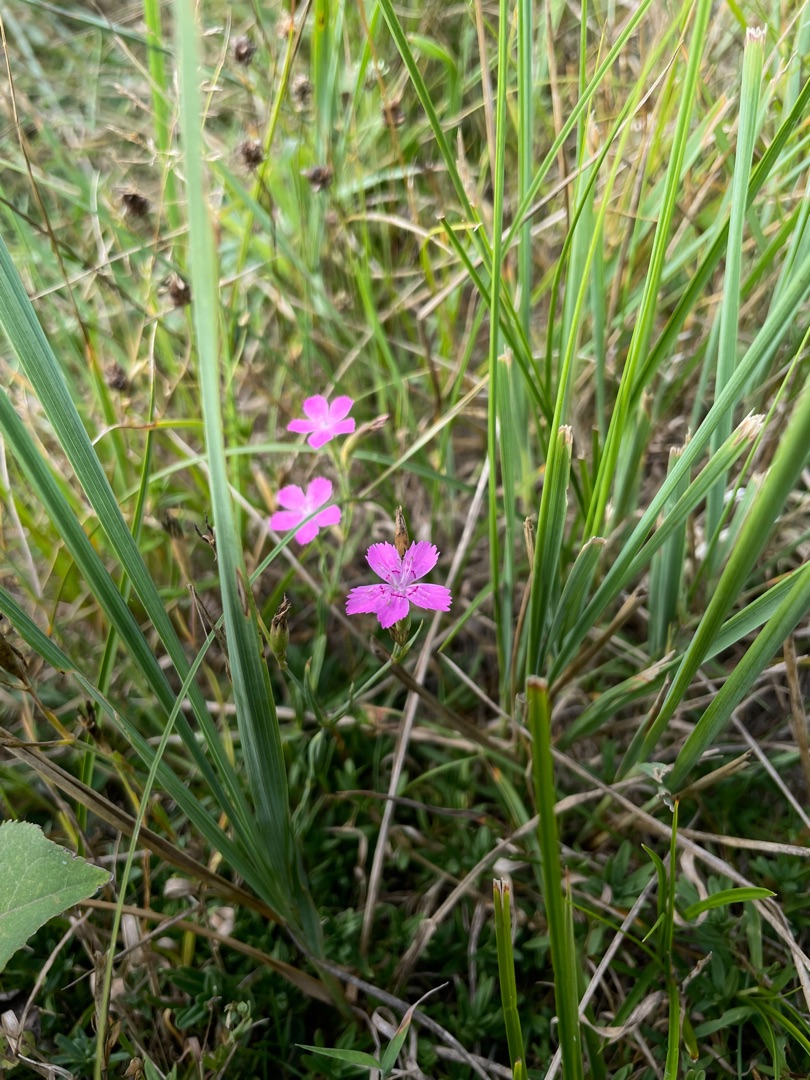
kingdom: Plantae
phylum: Tracheophyta
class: Magnoliopsida
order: Caryophyllales
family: Caryophyllaceae
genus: Dianthus
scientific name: Dianthus deltoides
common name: Bakke-nellike
